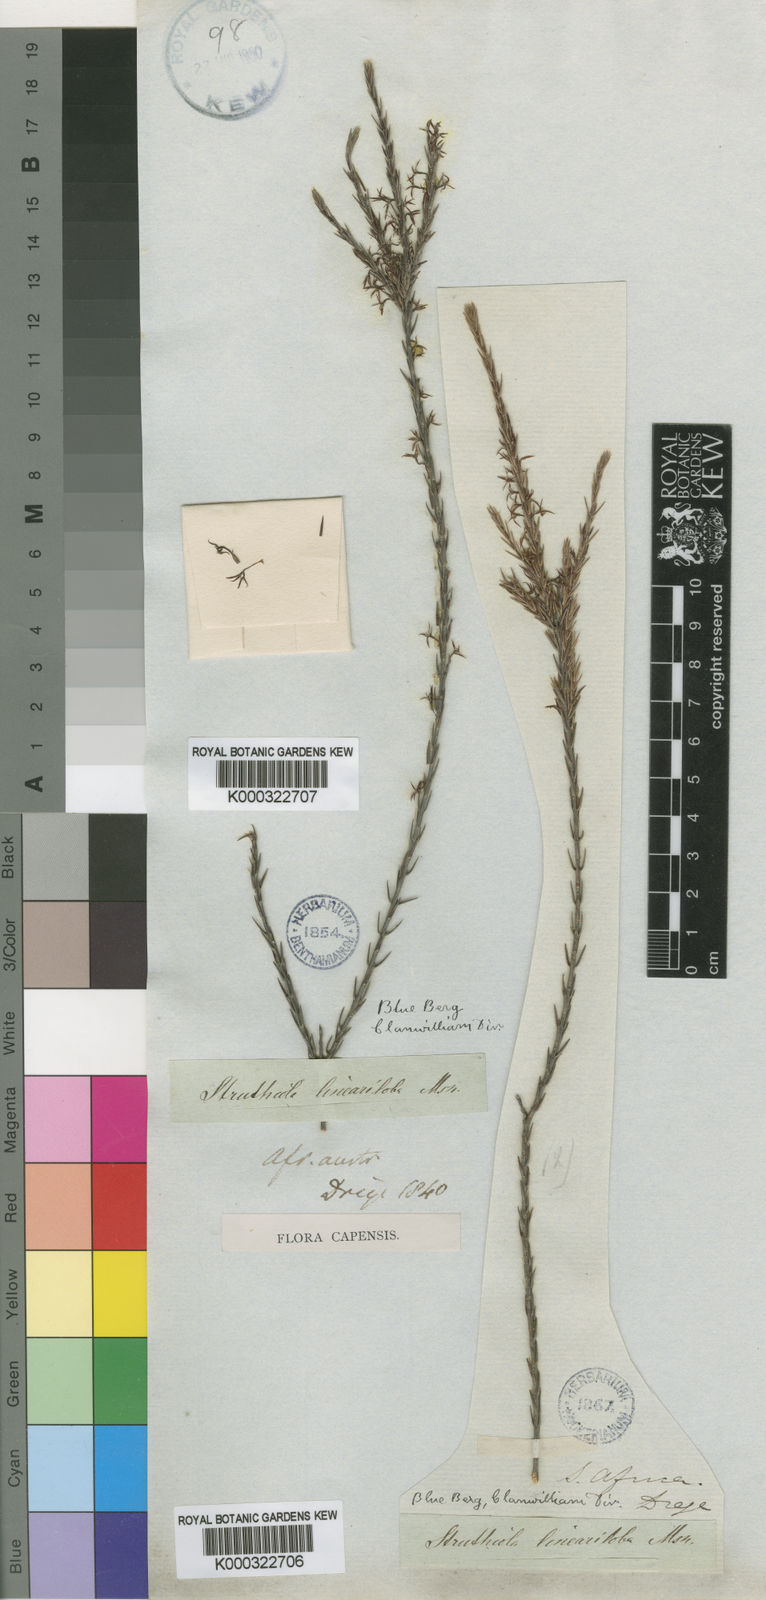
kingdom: Plantae
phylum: Tracheophyta
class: Magnoliopsida
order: Malvales
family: Thymelaeaceae
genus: Struthiola
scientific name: Struthiola lineariloba
